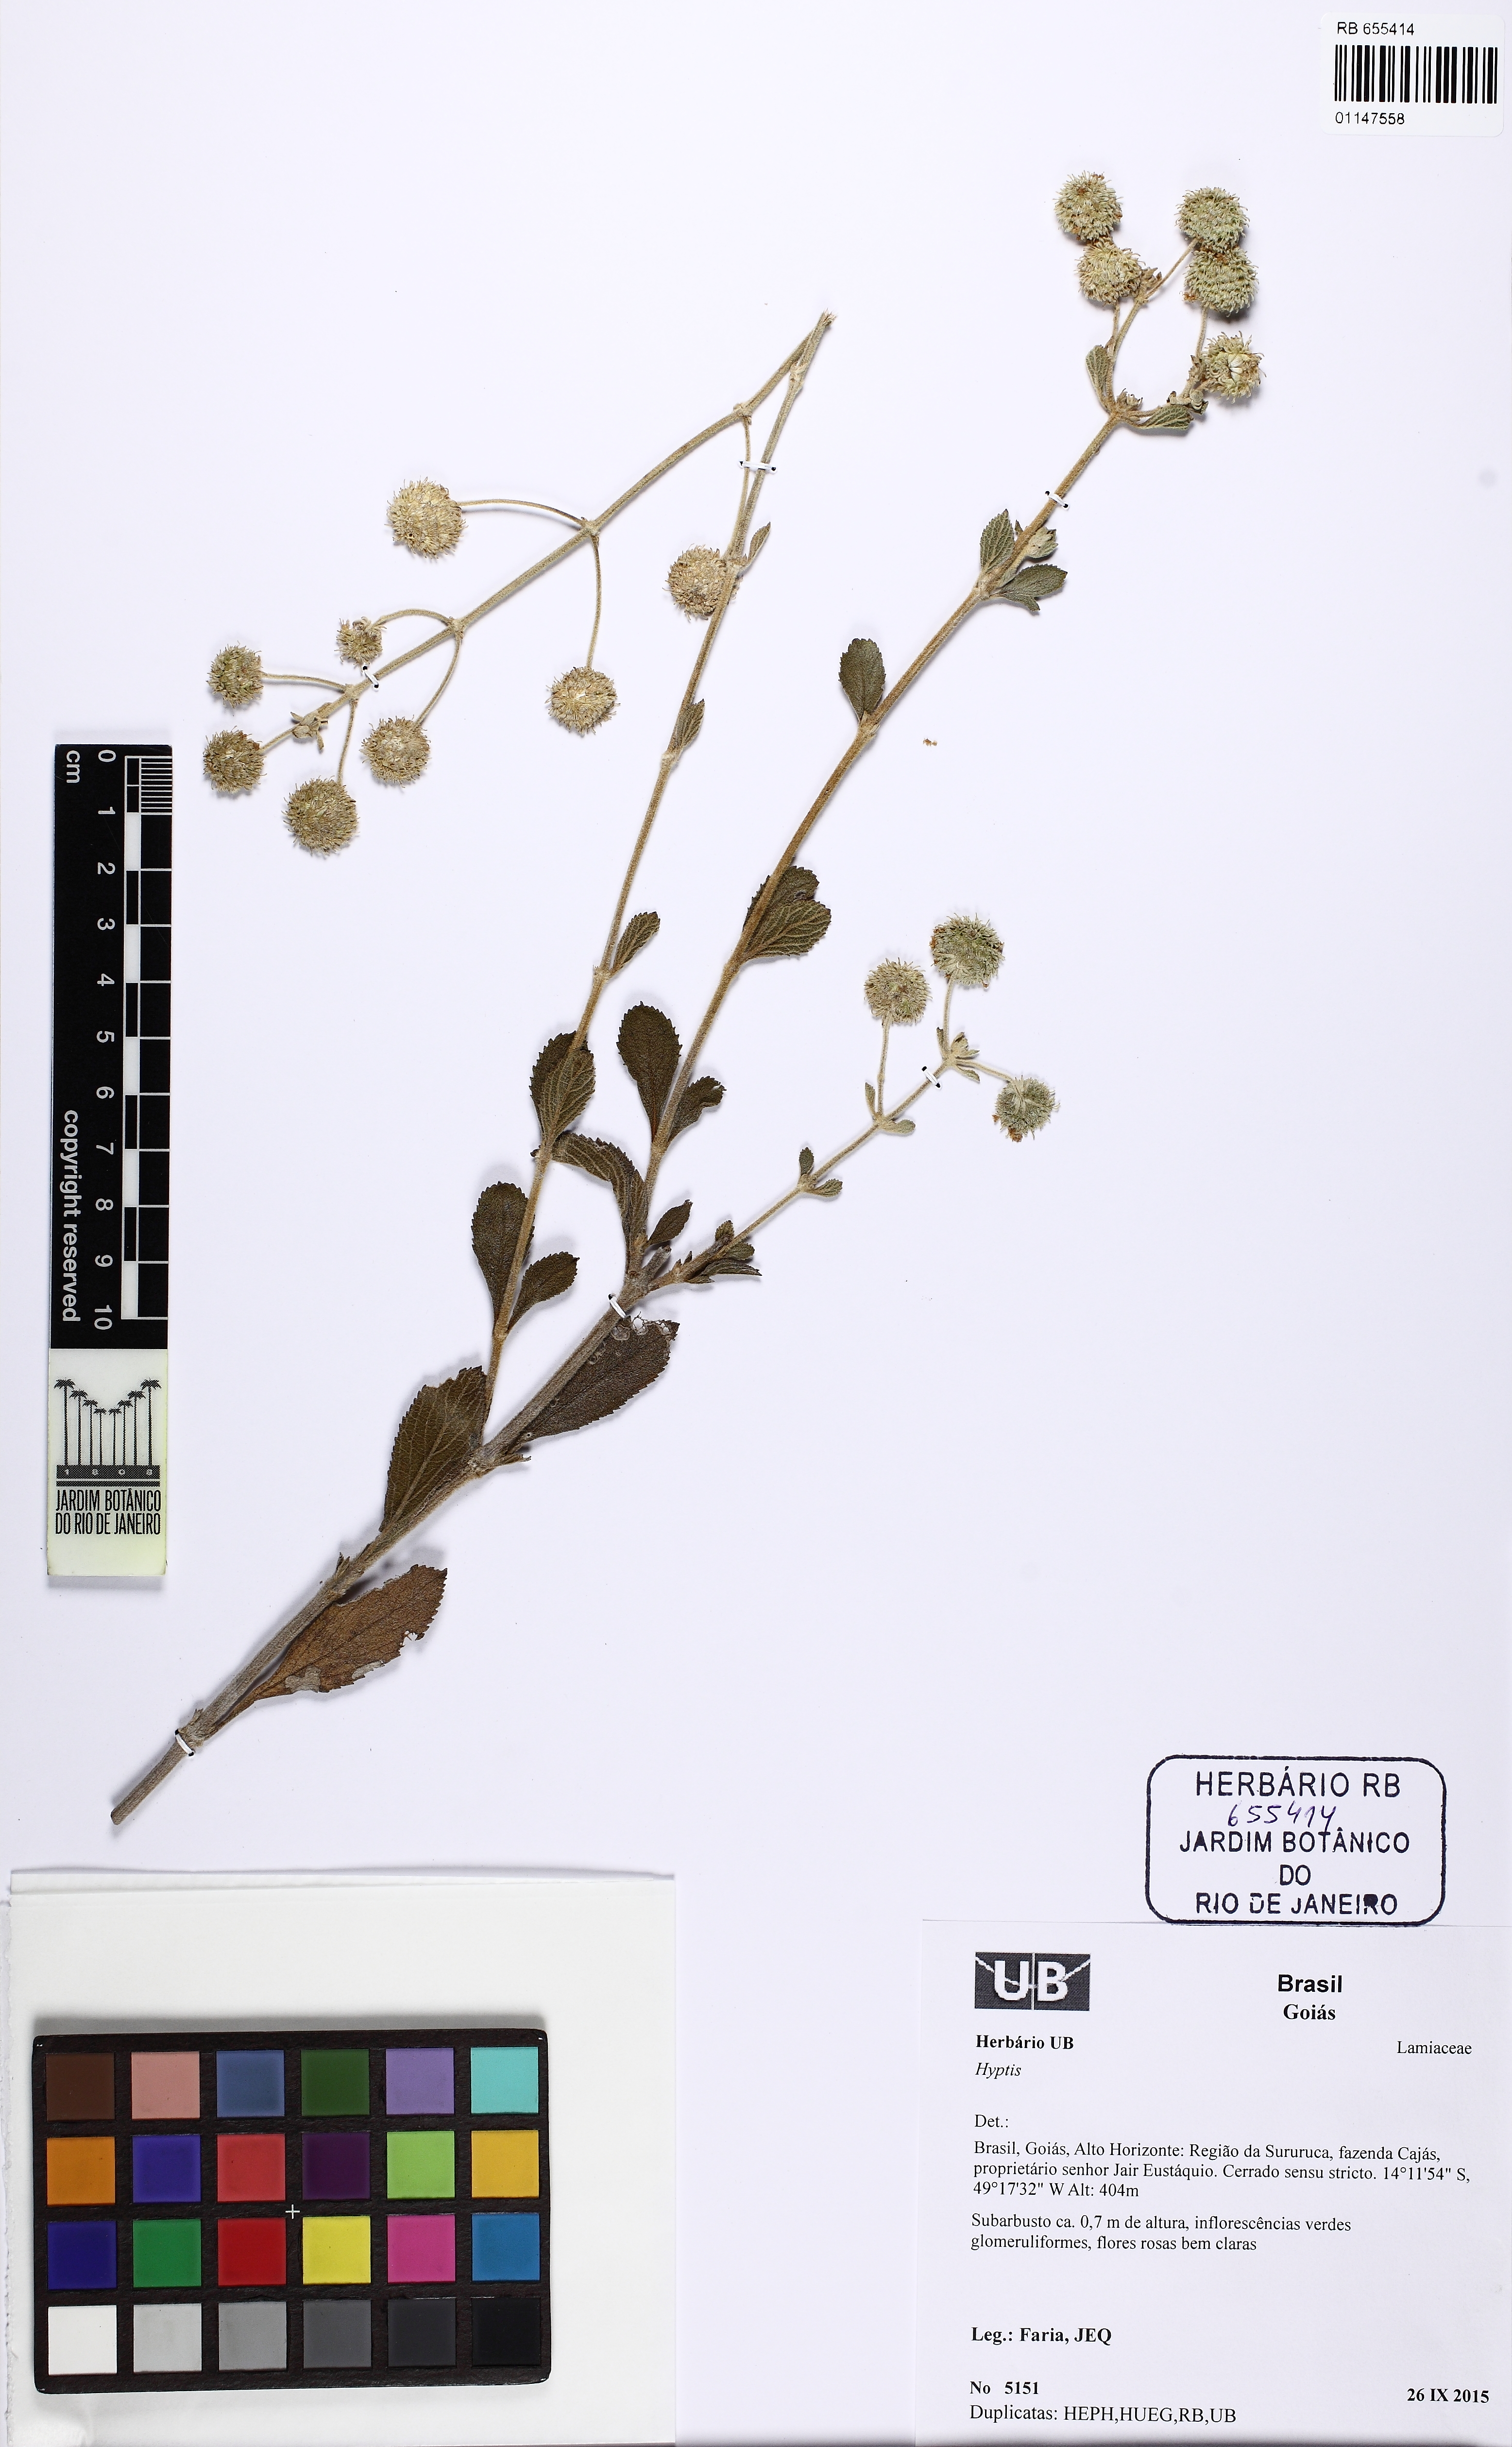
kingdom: Plantae
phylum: Tracheophyta
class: Magnoliopsida
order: Lamiales
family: Lamiaceae
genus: Cyanocephalus
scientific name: Cyanocephalus desertorum
